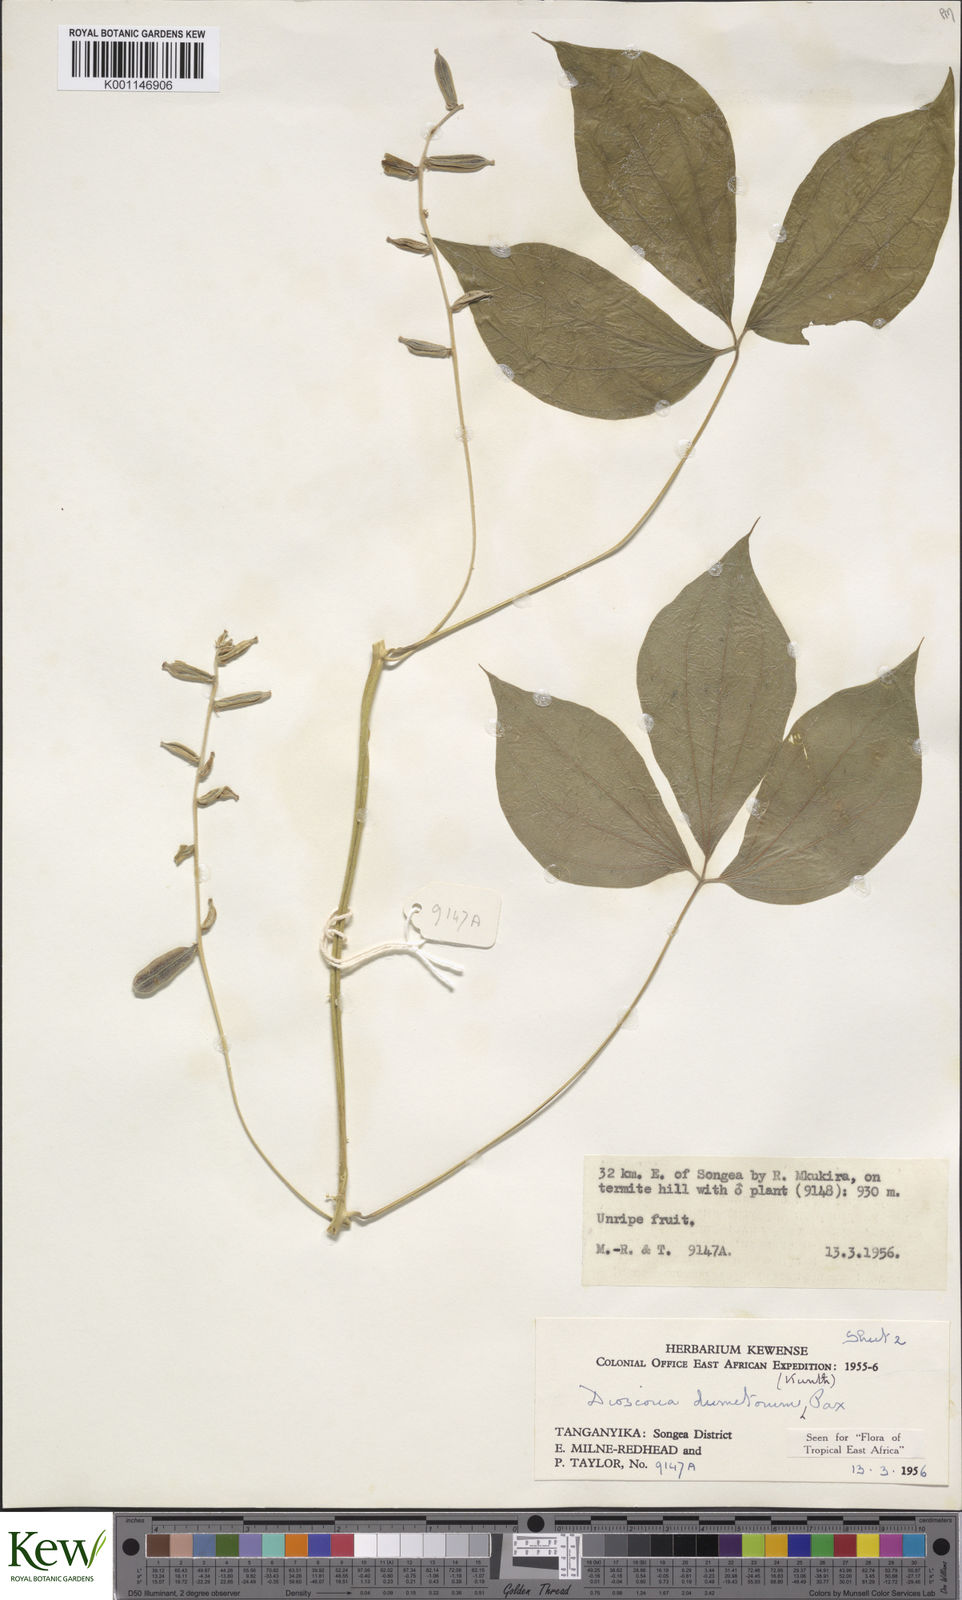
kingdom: Plantae
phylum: Tracheophyta
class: Liliopsida
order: Dioscoreales
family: Dioscoreaceae
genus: Dioscorea
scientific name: Dioscorea dumetorum
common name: African bitter yam
